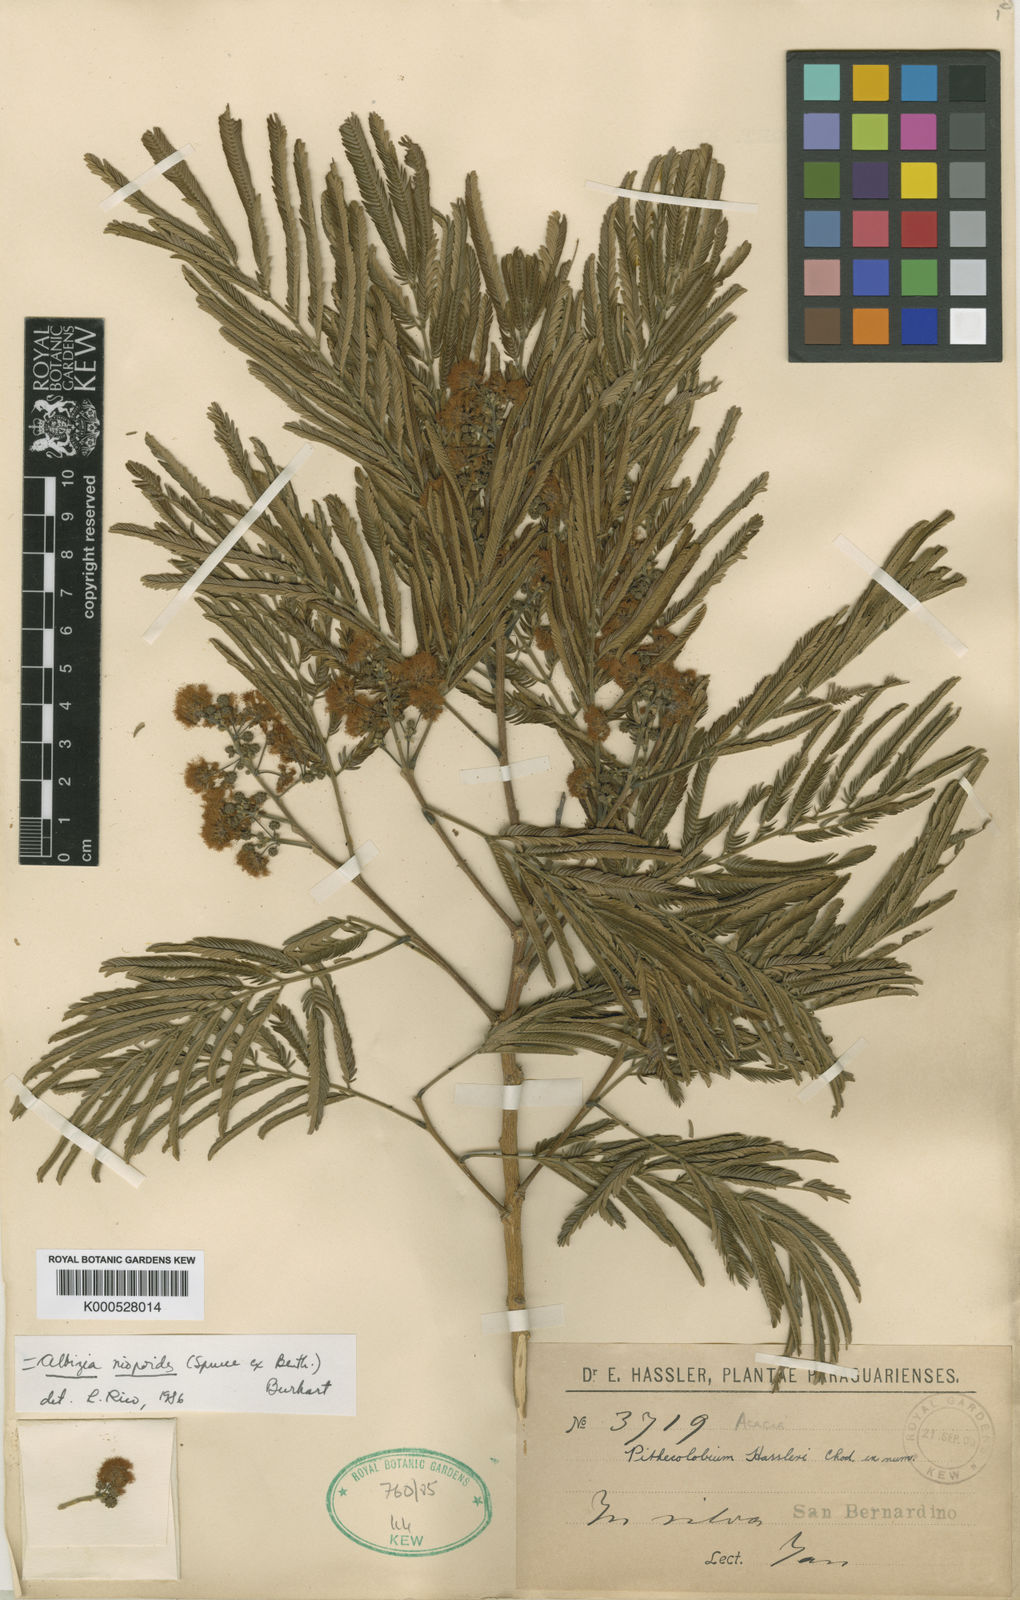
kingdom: Plantae
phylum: Tracheophyta
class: Magnoliopsida
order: Fabales
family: Fabaceae
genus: Albizia
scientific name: Albizia niopoides
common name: Silk tree
